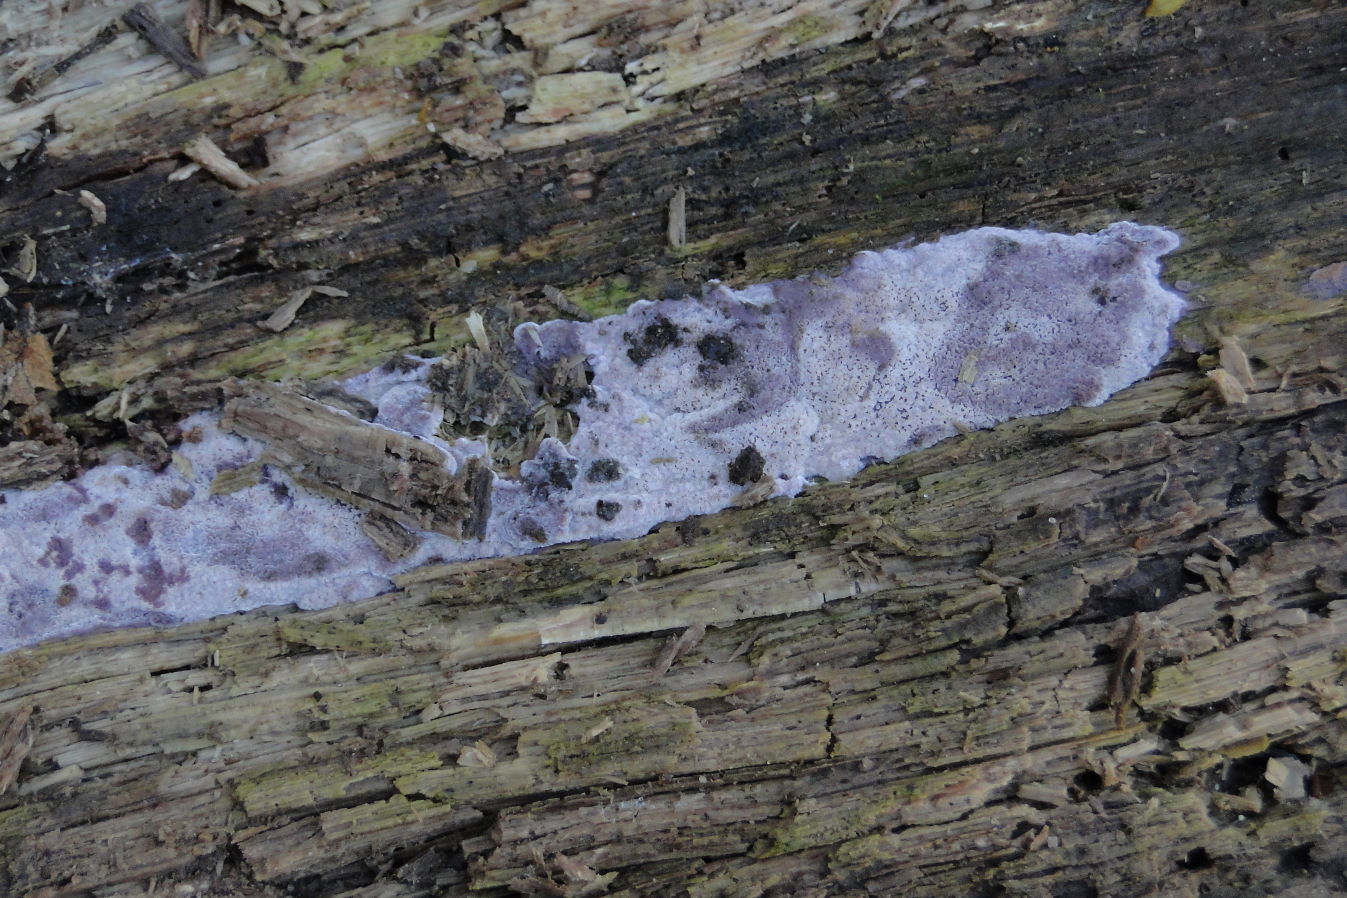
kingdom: Fungi
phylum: Basidiomycota
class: Agaricomycetes
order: Polyporales
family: Irpicaceae
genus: Ceriporia
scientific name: Ceriporia excelsa
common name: lilla voksporesvamp
